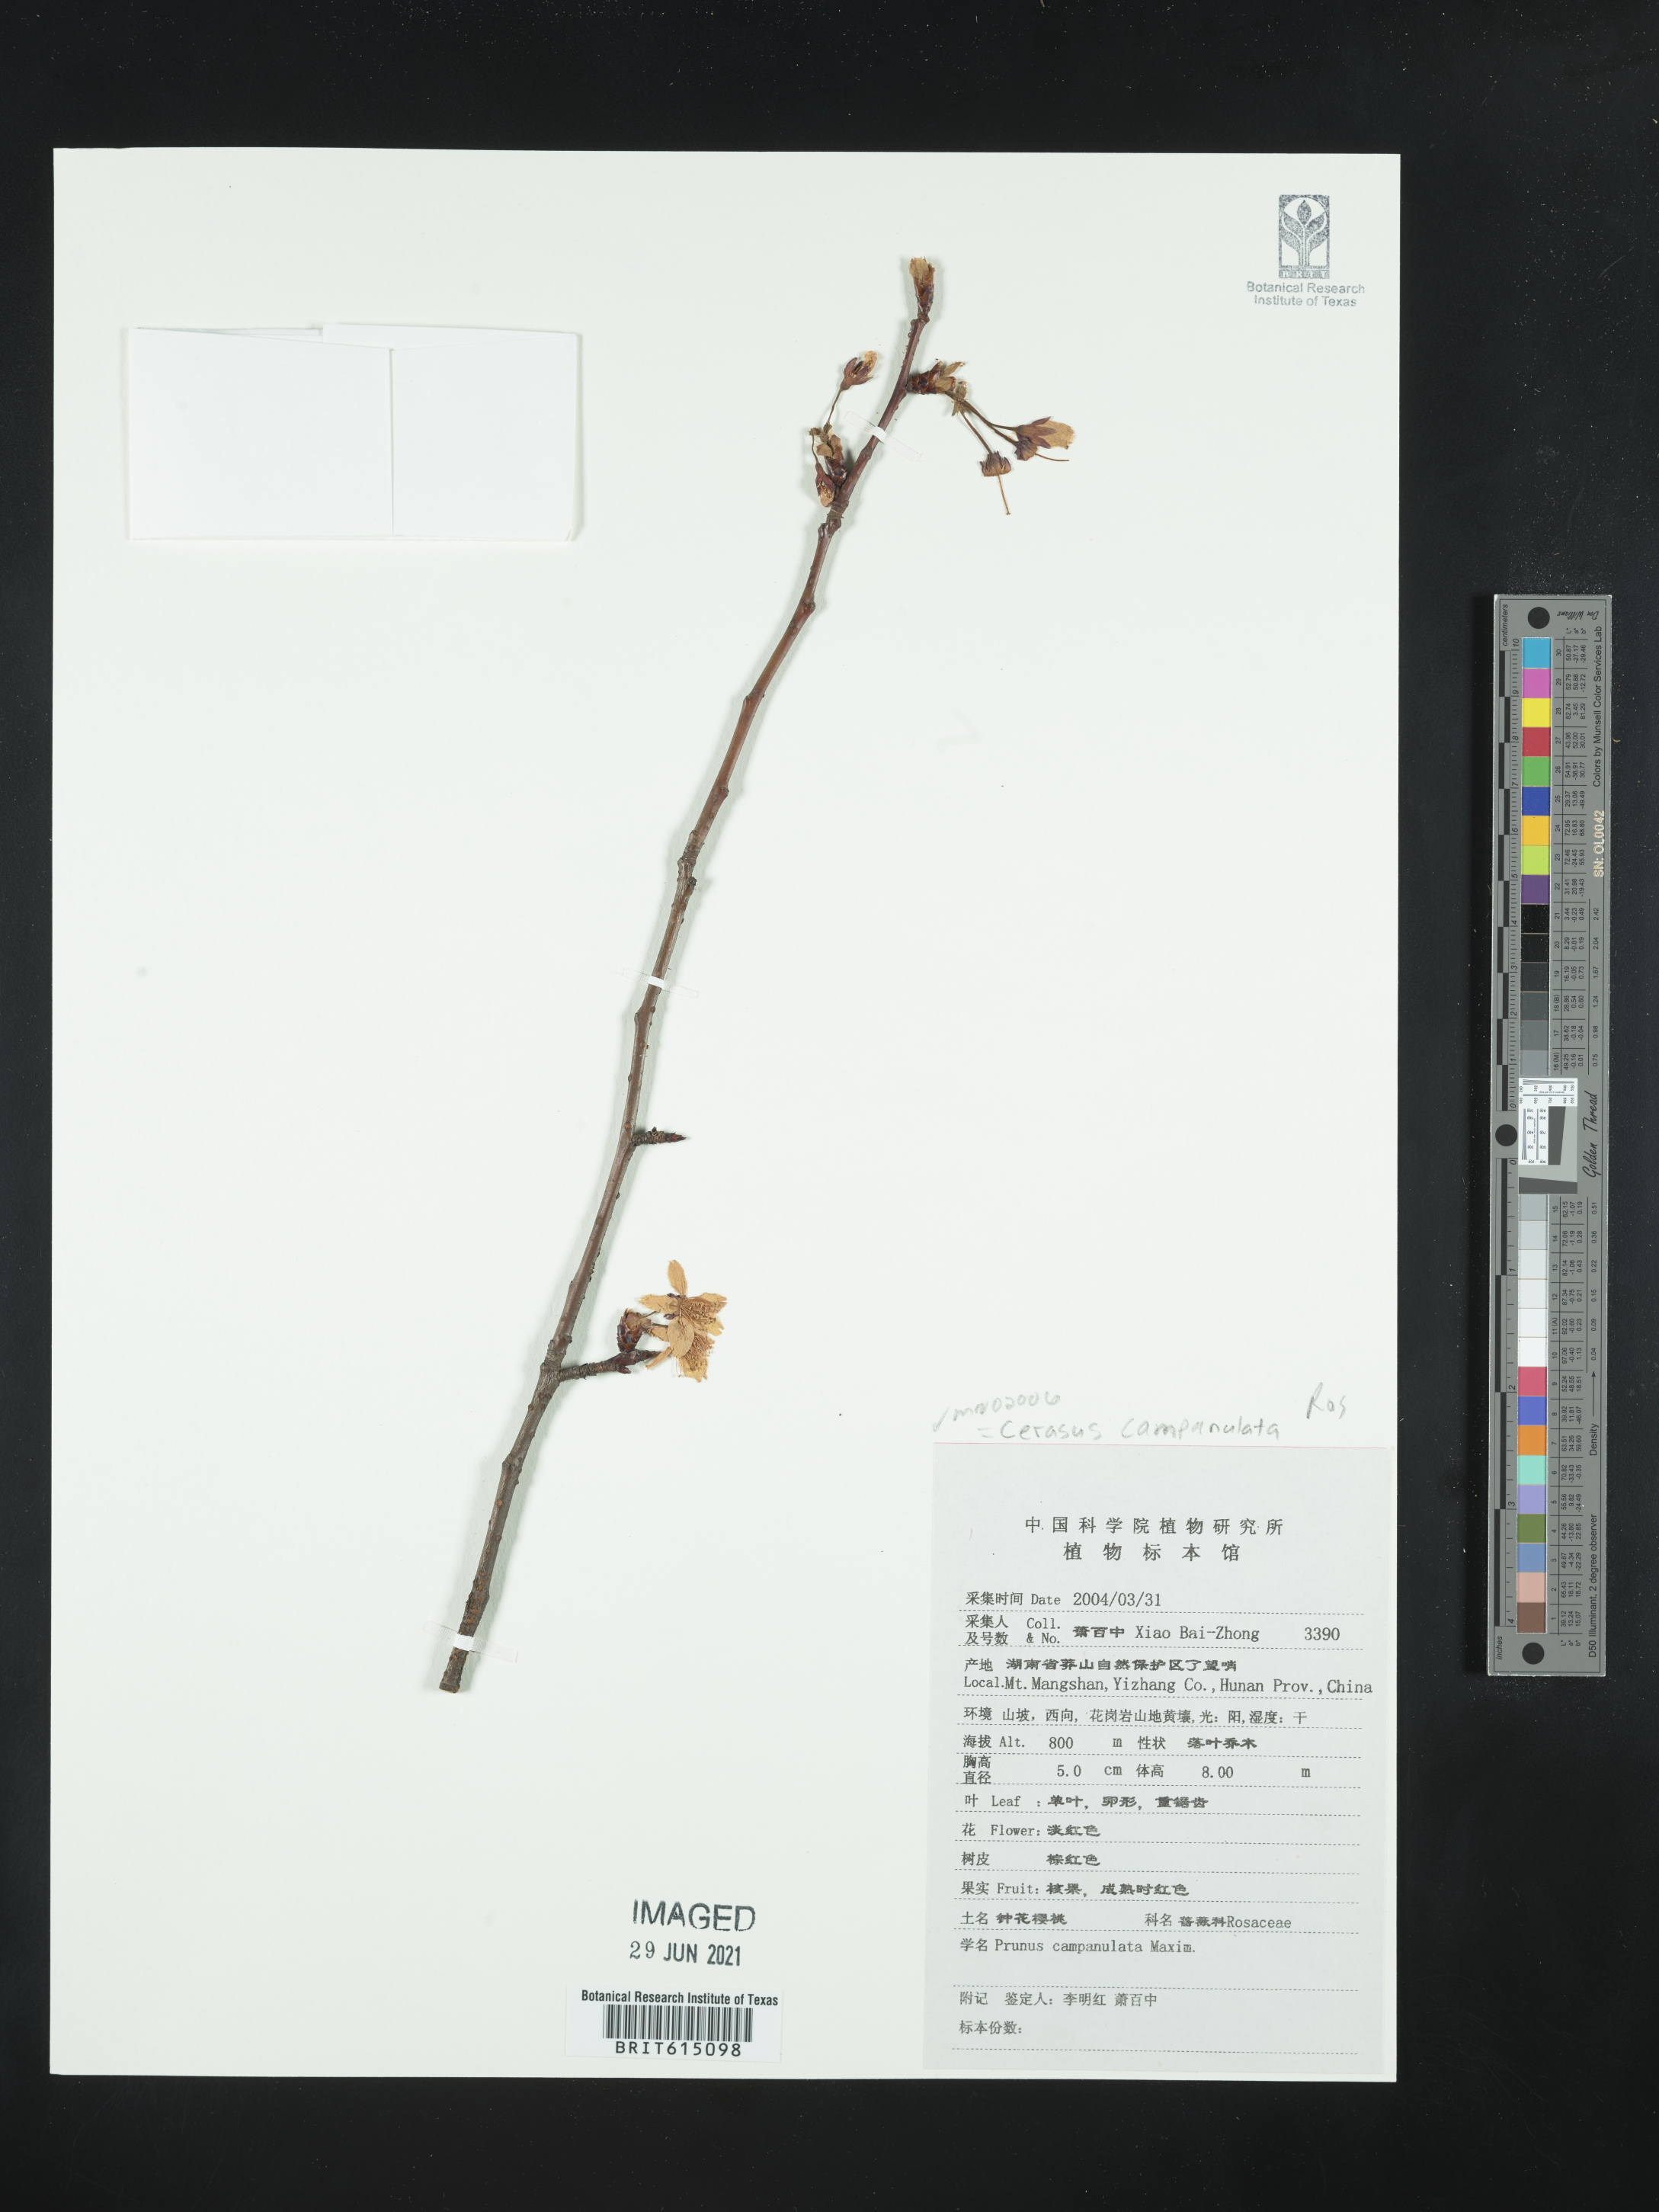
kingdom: Plantae
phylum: Tracheophyta
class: Magnoliopsida
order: Rosales
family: Rosaceae
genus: Prunus
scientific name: Prunus campanulata
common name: Taiwan flowering cherry
